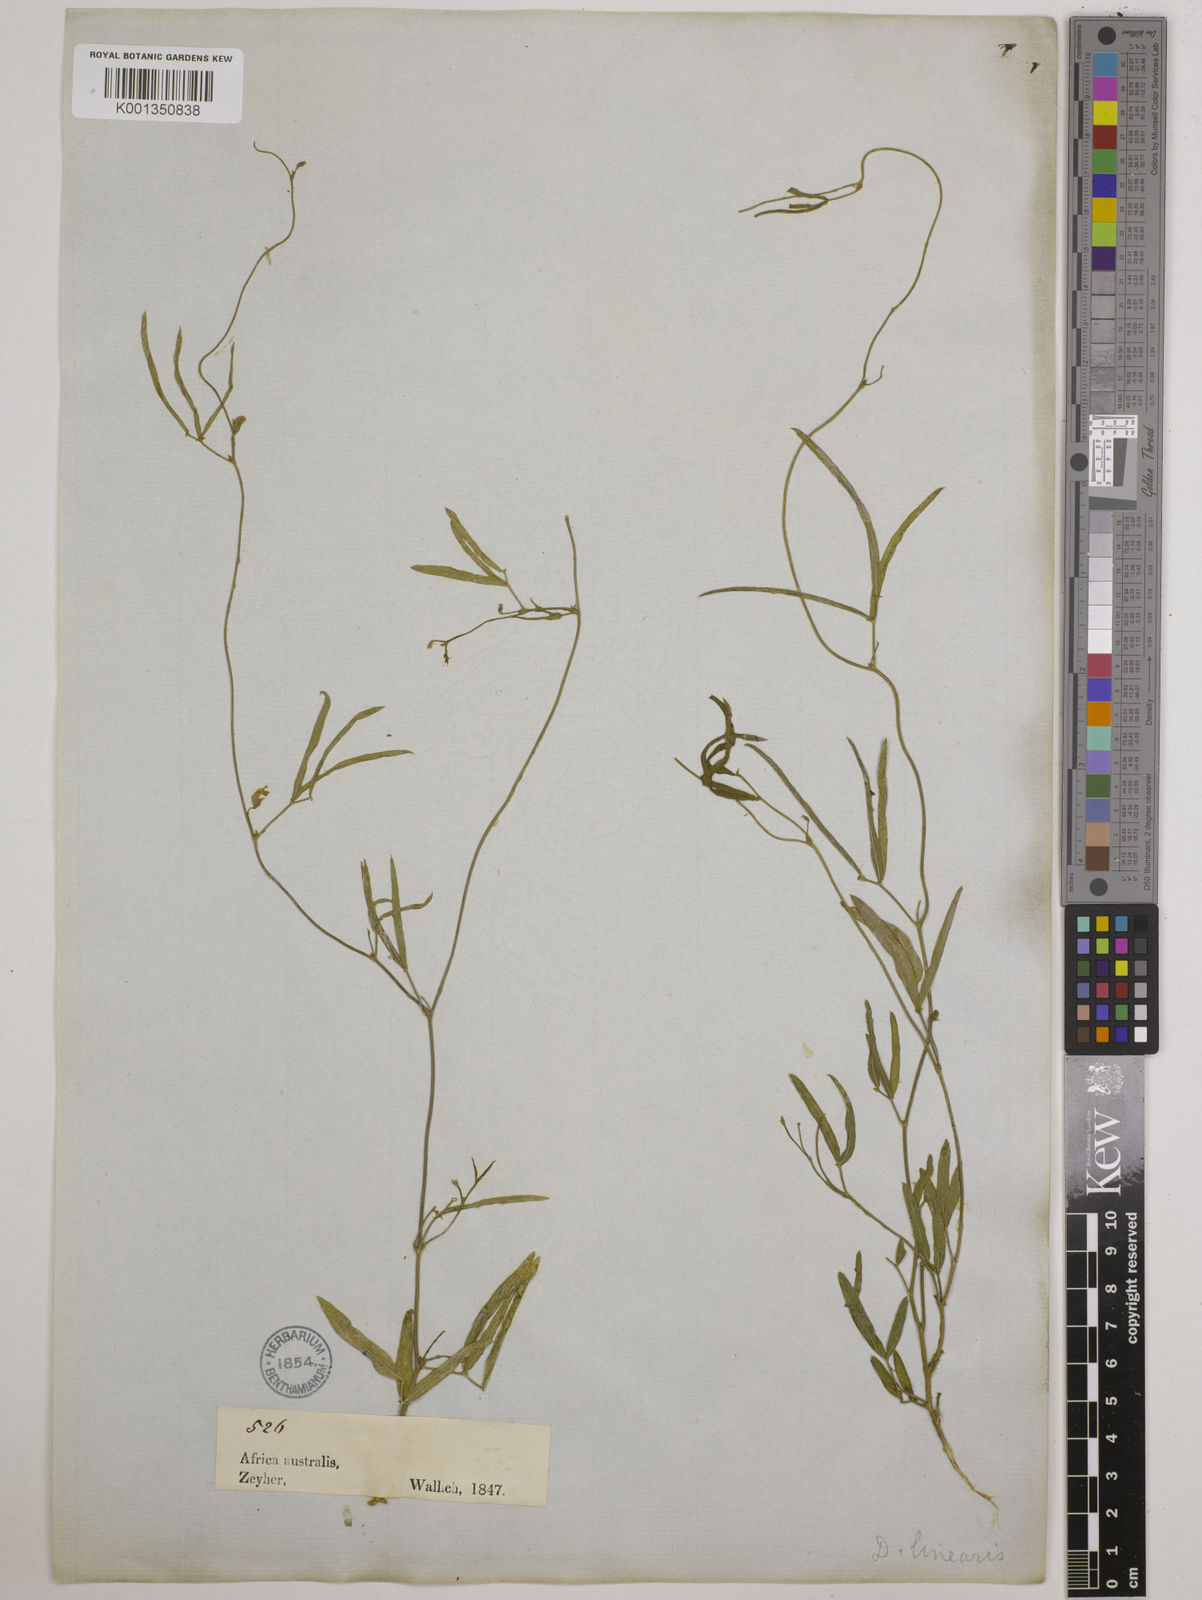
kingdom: Plantae
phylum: Tracheophyta
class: Magnoliopsida
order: Fabales
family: Fabaceae
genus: Dolichos
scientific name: Dolichos linearis
